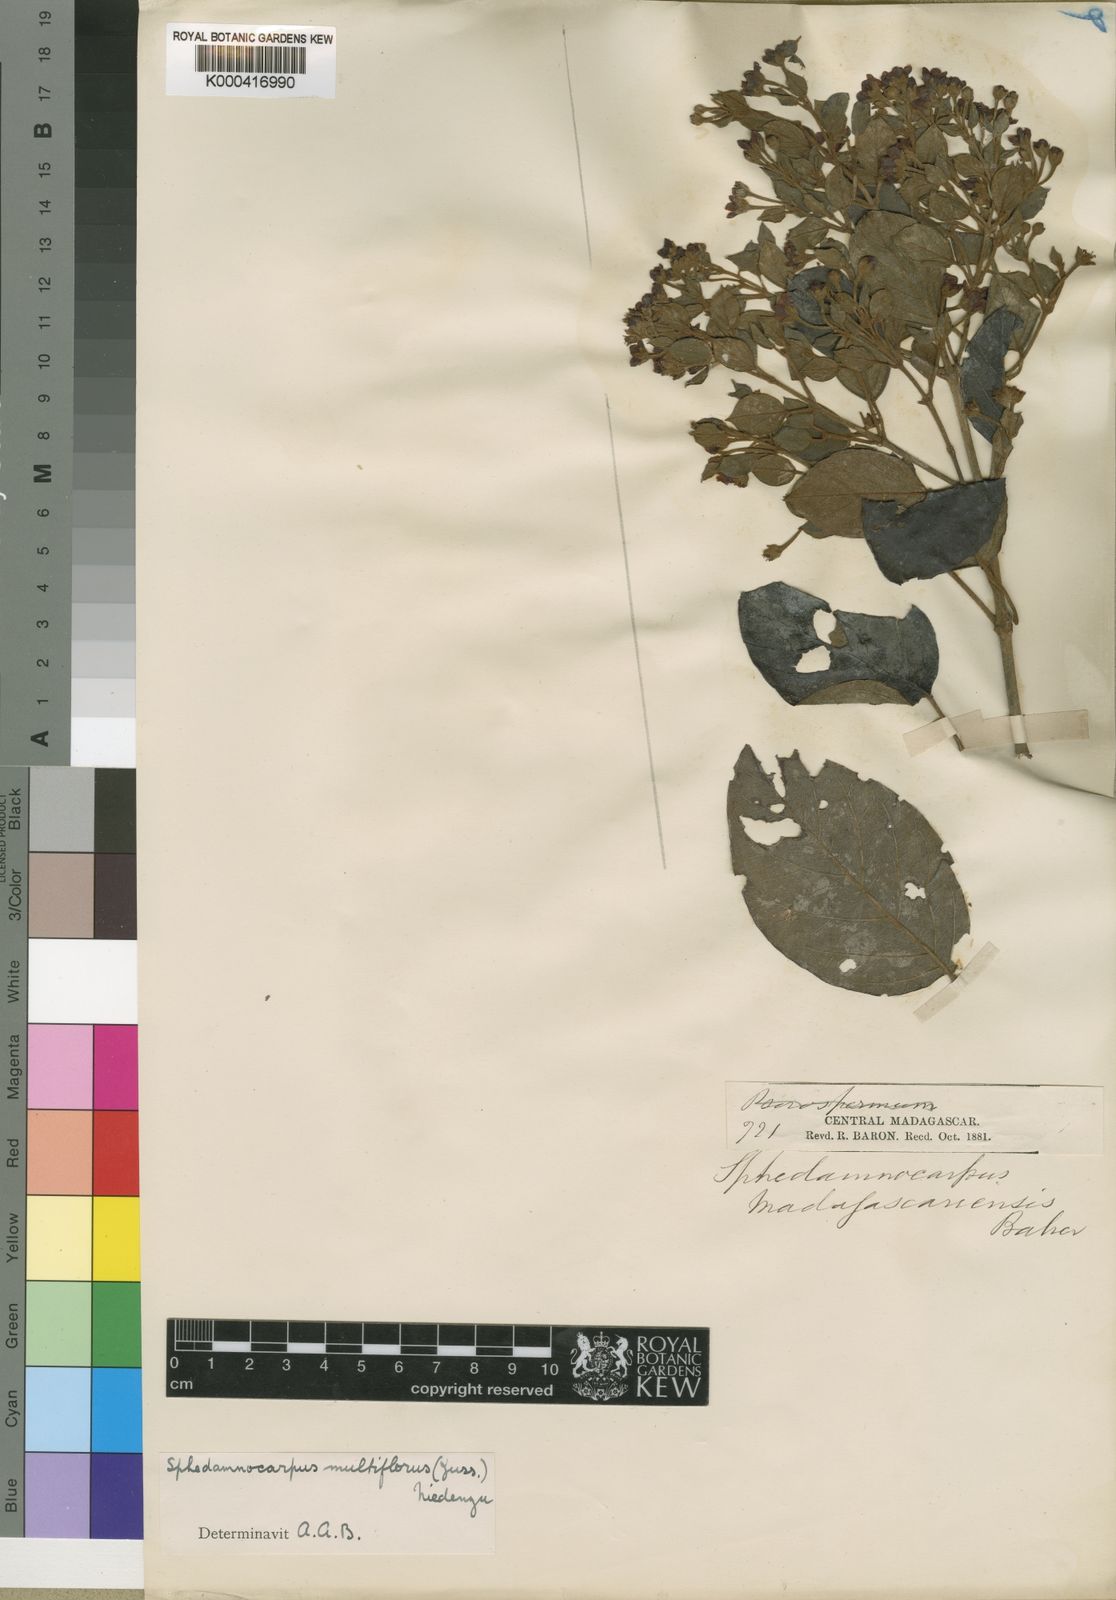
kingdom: Plantae
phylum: Tracheophyta
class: Magnoliopsida
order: Malpighiales
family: Malpighiaceae
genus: Sphedamnocarpus
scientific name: Sphedamnocarpus multiflorus
